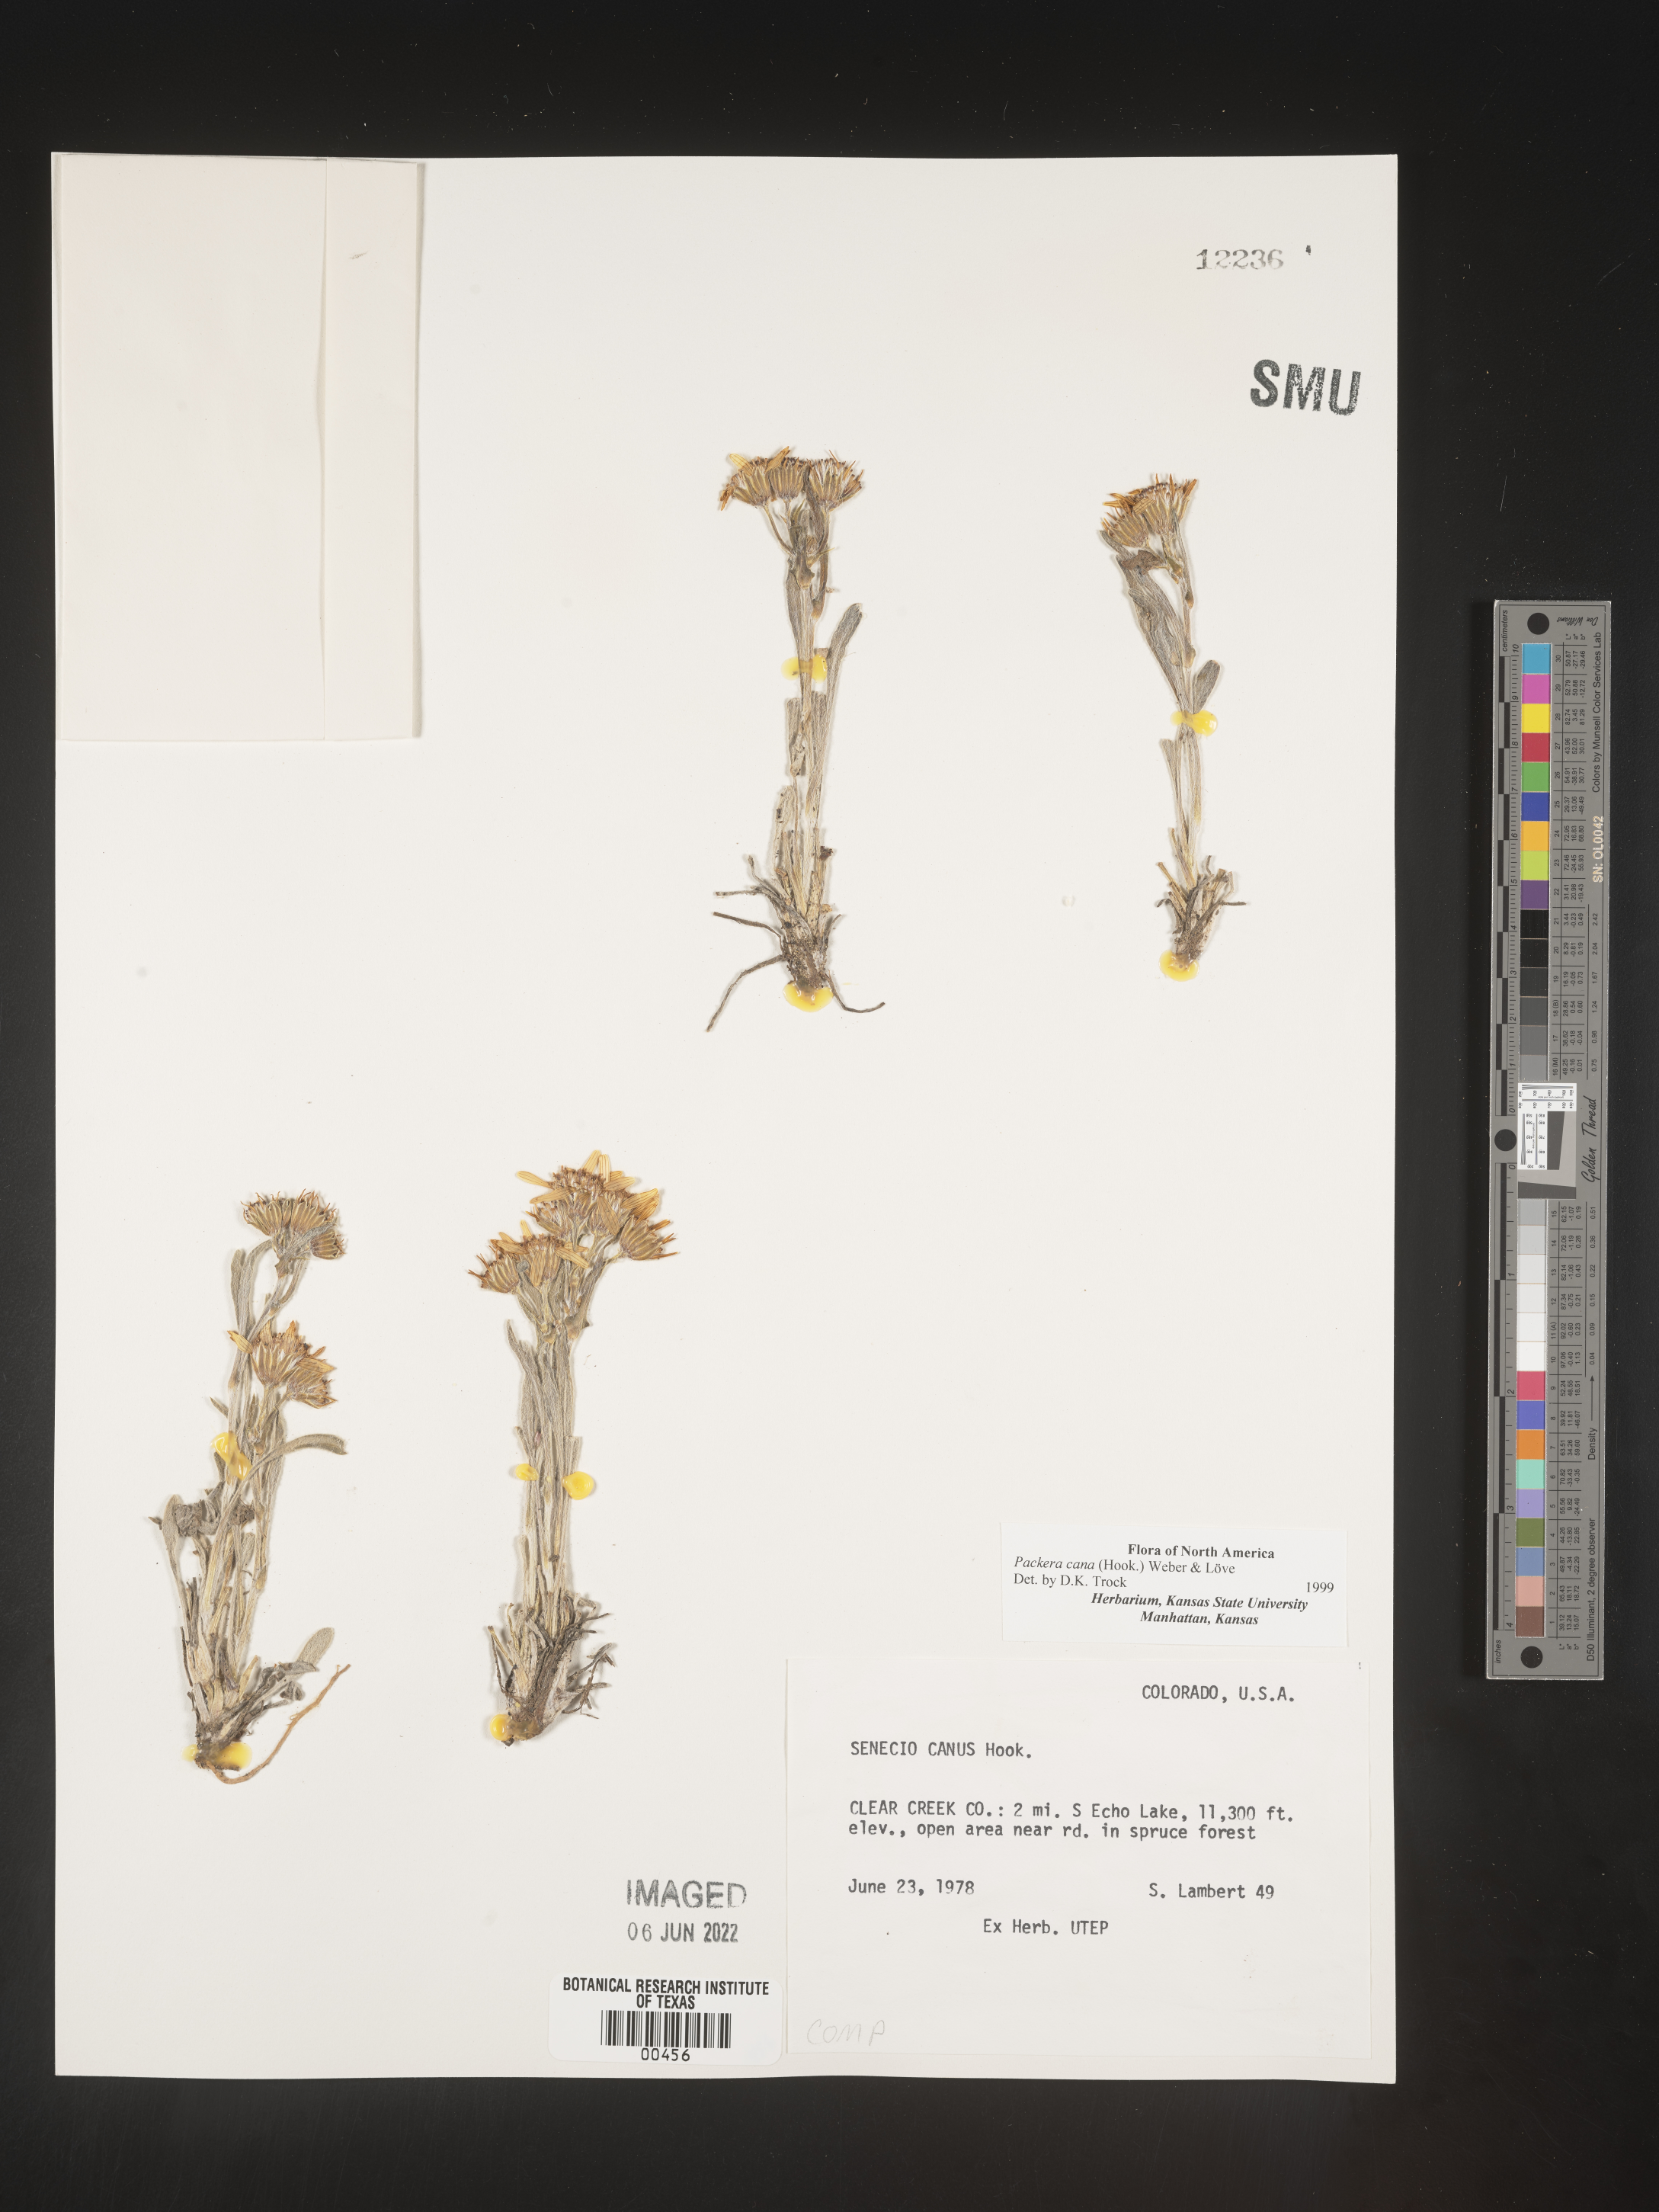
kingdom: Plantae
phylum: Tracheophyta
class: Magnoliopsida
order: Asterales
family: Asteraceae
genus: Packera
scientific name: Packera cana
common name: Woolly groundsel
